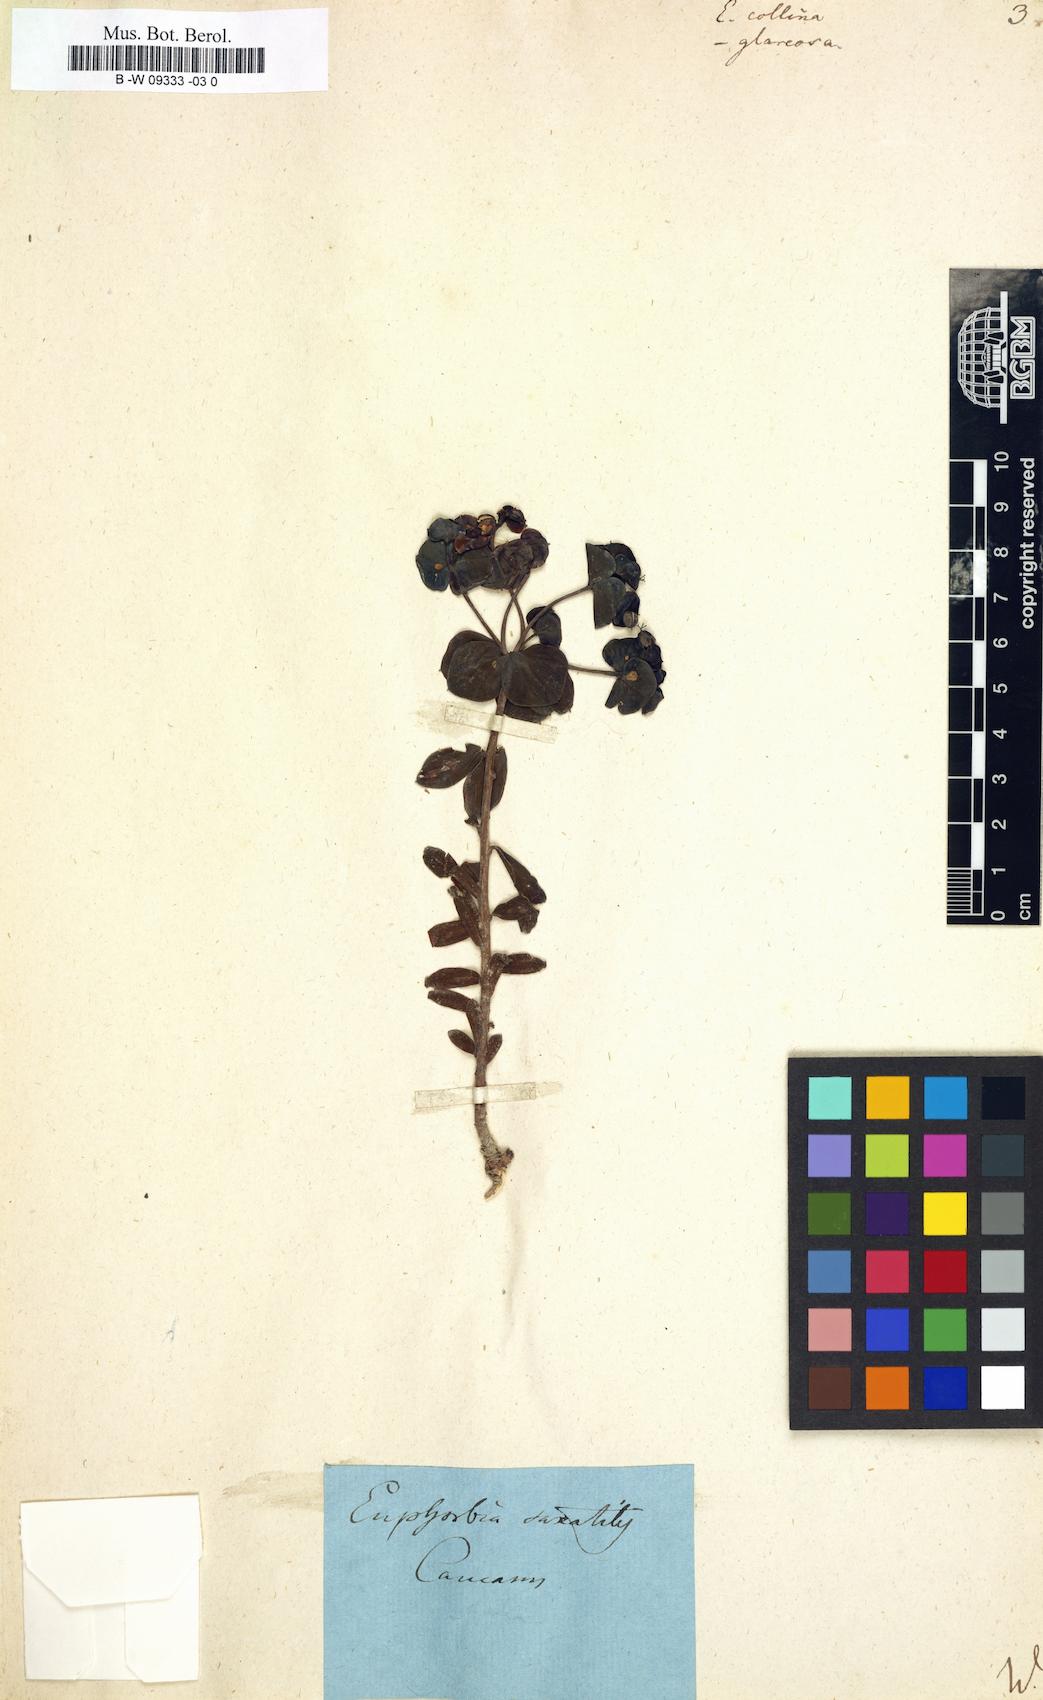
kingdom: Plantae
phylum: Tracheophyta
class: Magnoliopsida
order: Malpighiales
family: Euphorbiaceae
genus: Euphorbia
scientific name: Euphorbia collina
